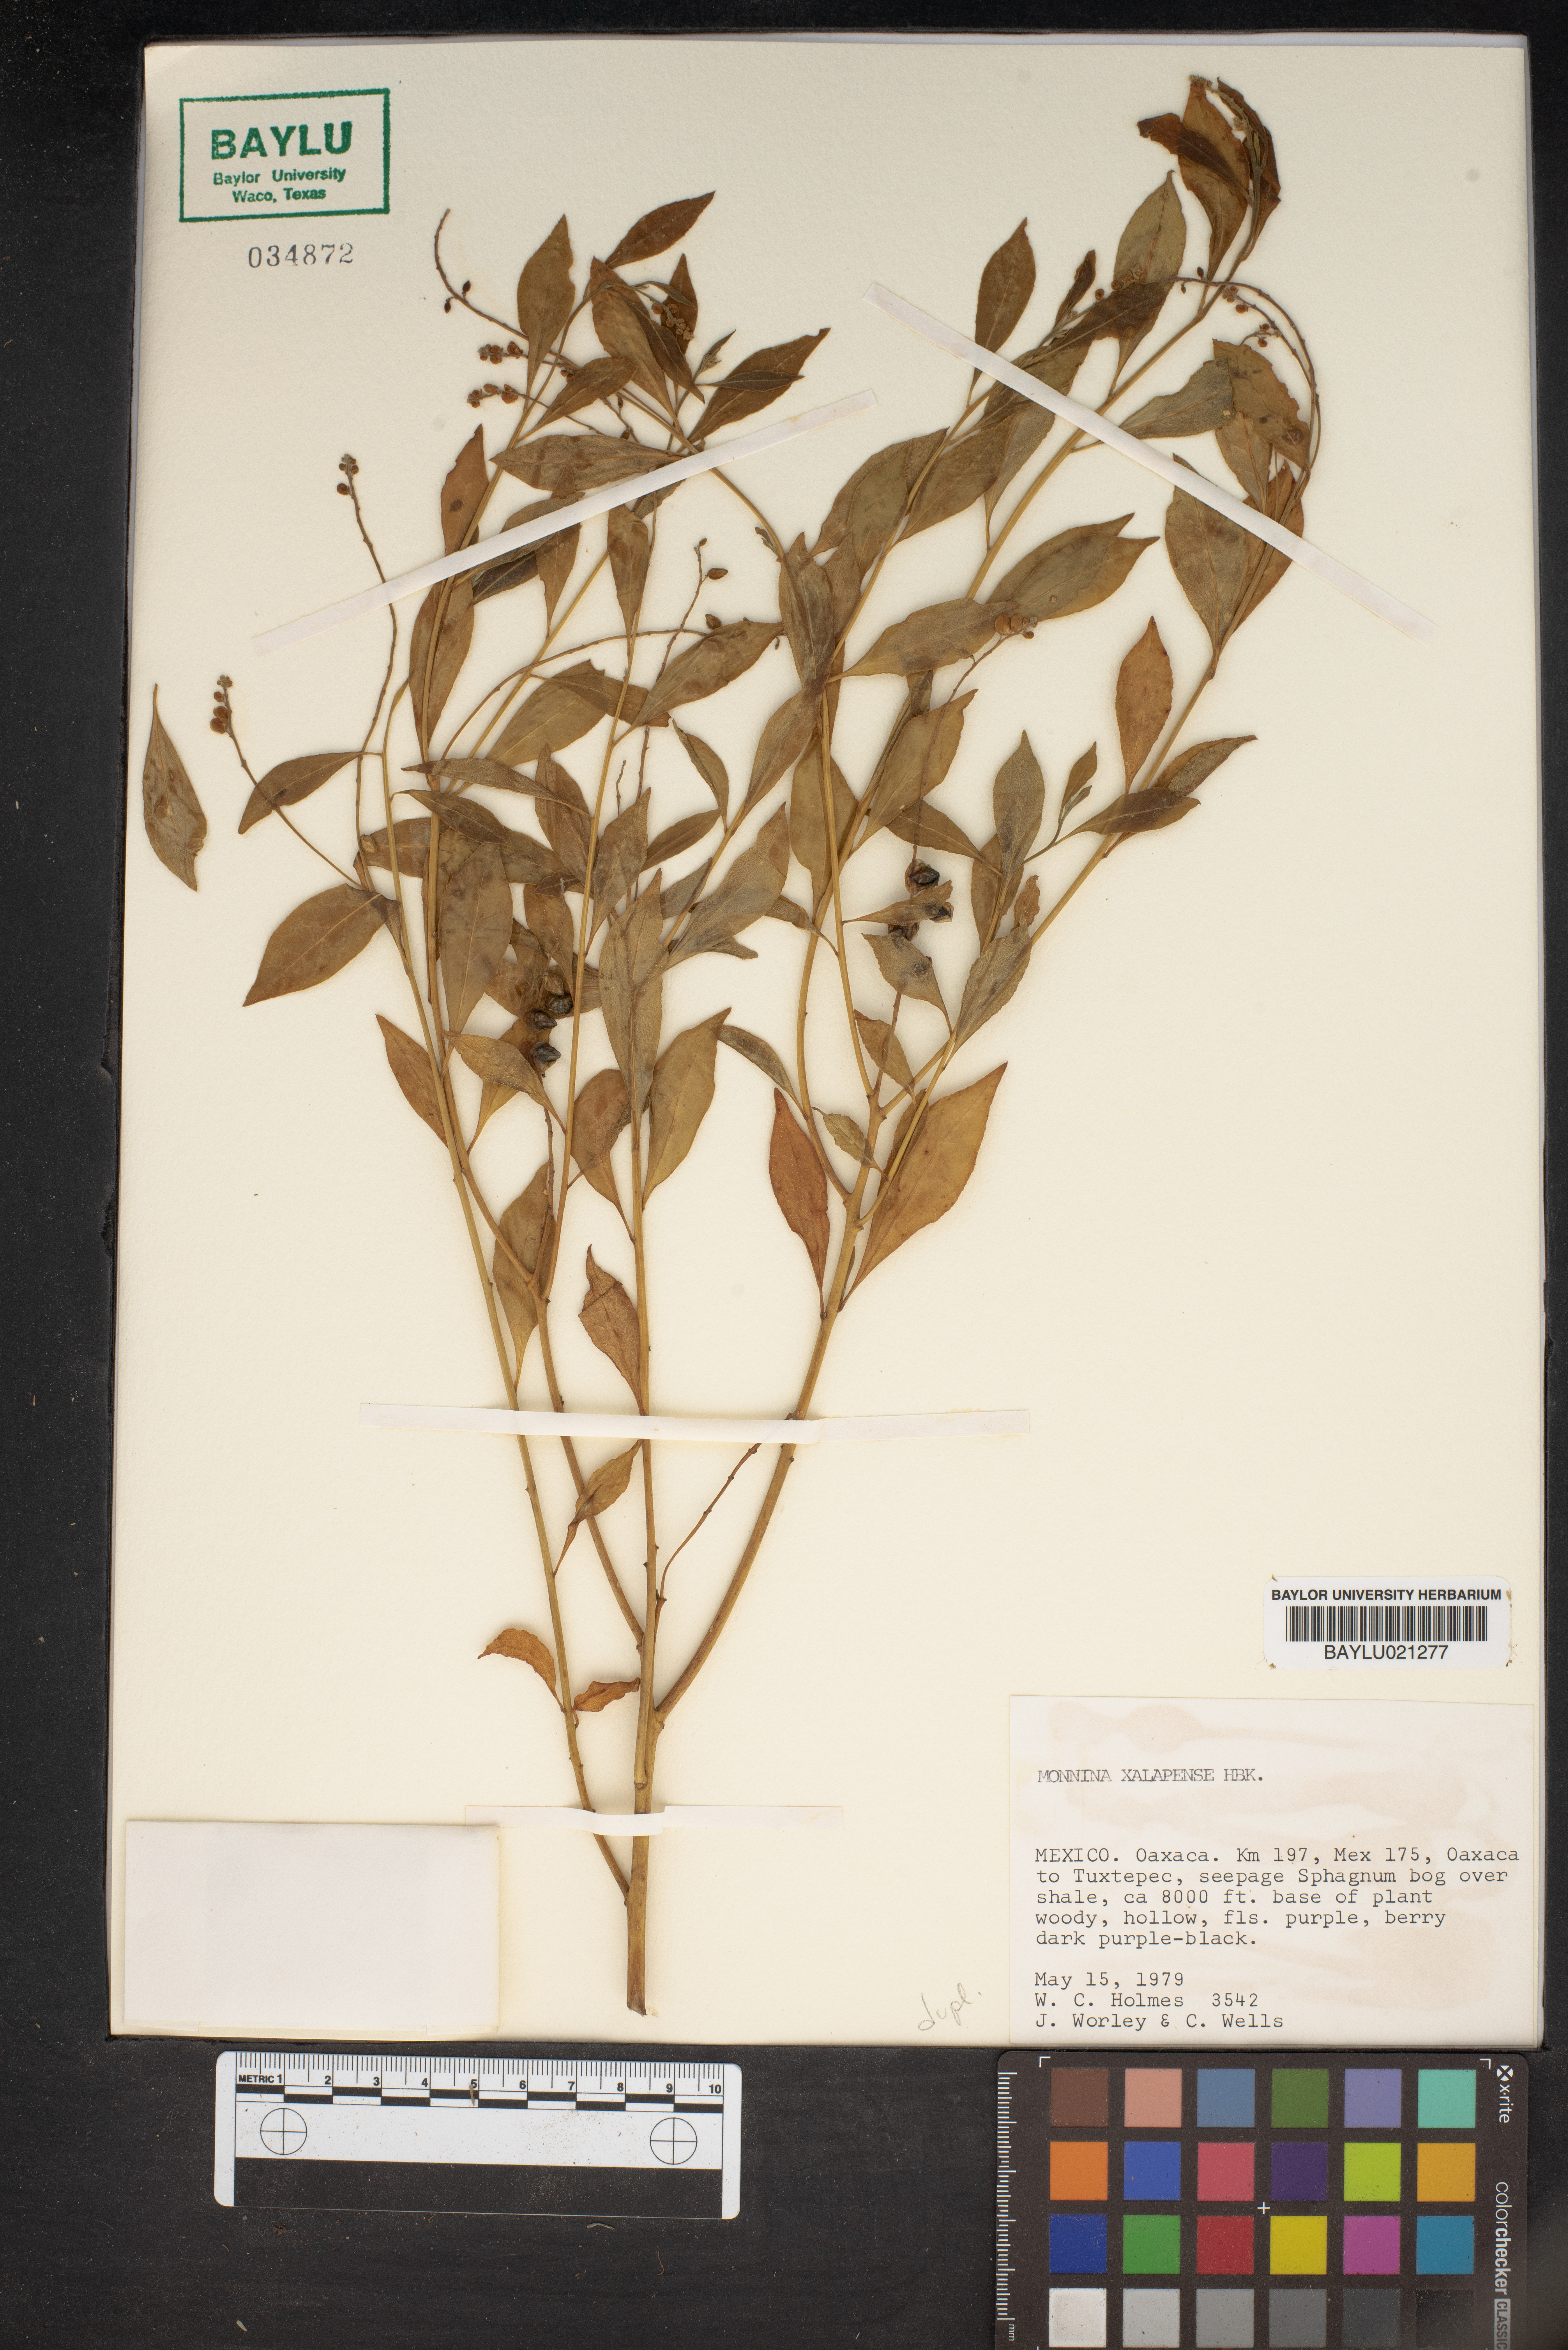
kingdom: Plantae
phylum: Tracheophyta
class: Magnoliopsida
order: Fabales
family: Polygalaceae
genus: Monnina
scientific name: Monnina xalapensis
